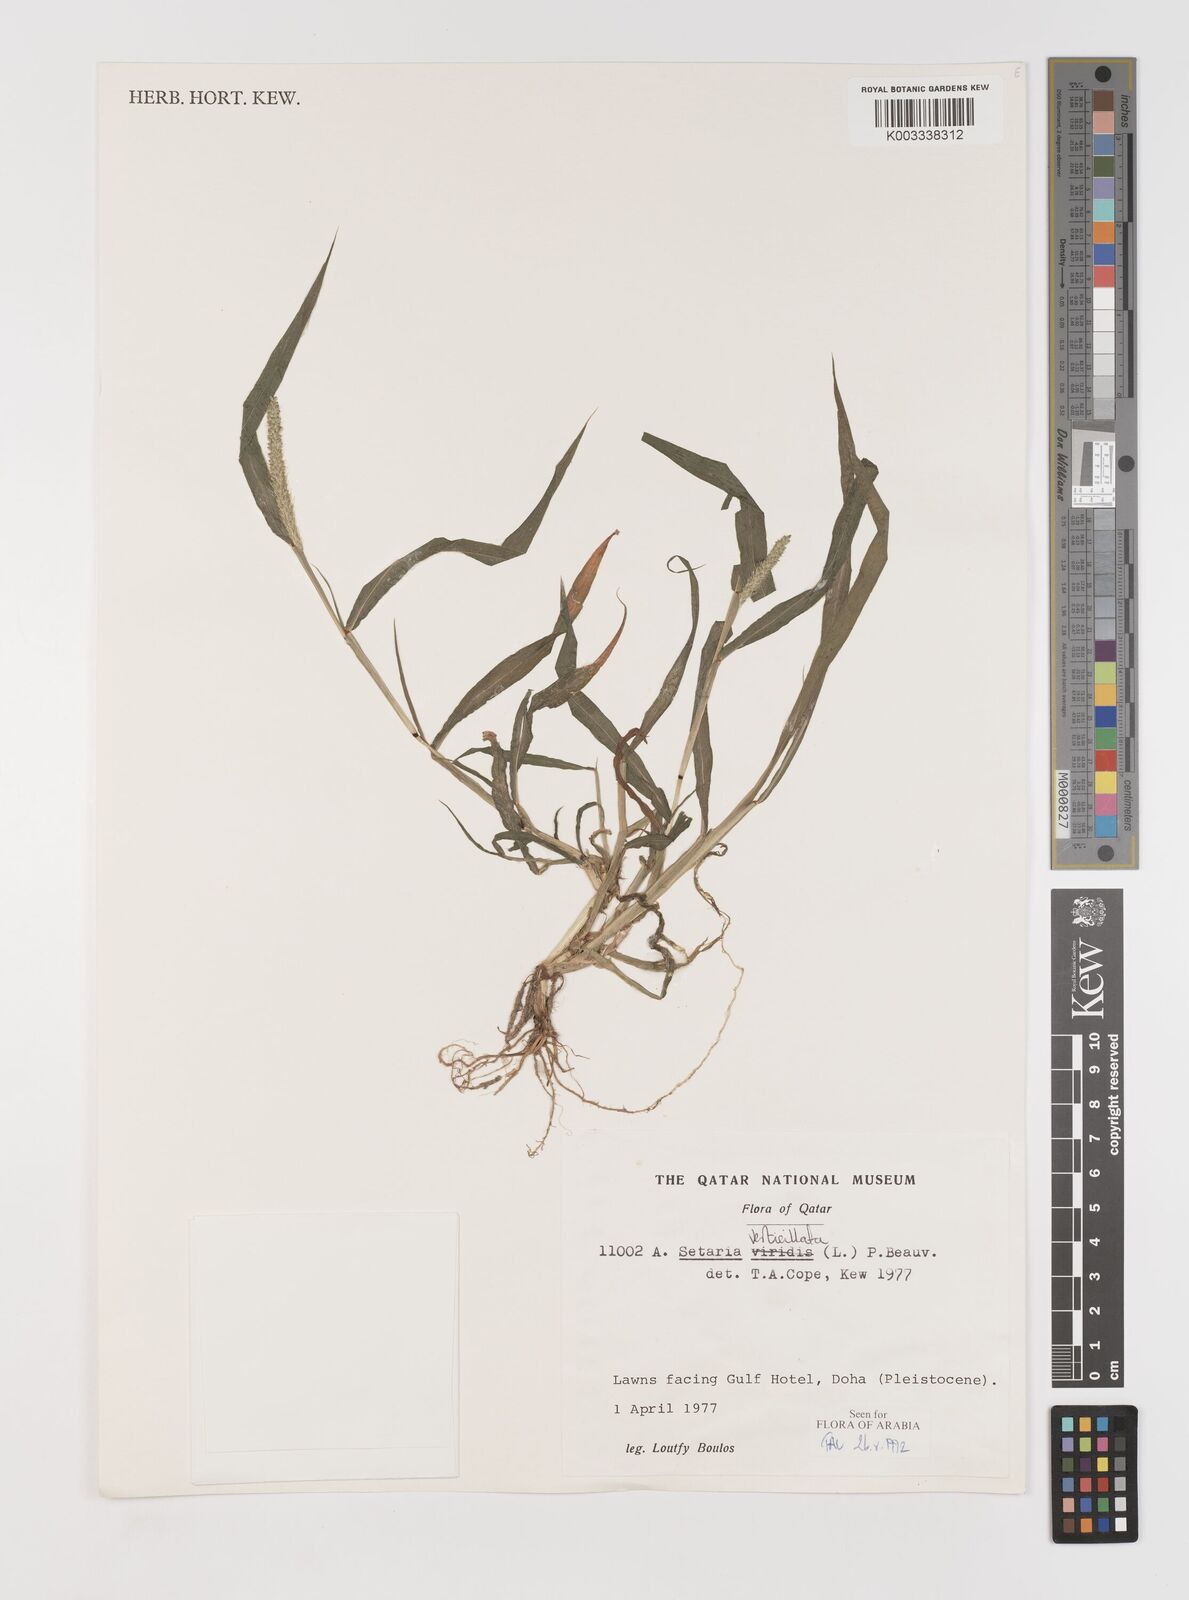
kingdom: Plantae
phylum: Tracheophyta
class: Liliopsida
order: Poales
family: Poaceae
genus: Setaria
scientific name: Setaria verticillata
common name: Hooked bristlegrass
